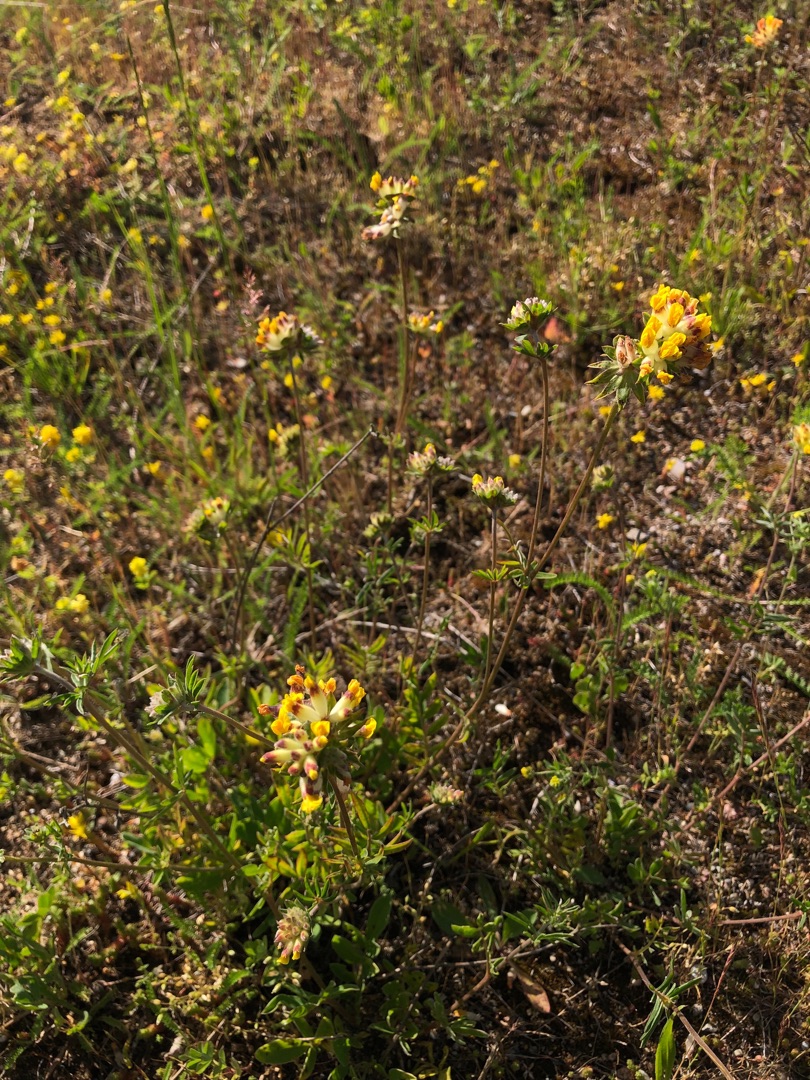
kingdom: Plantae
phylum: Tracheophyta
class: Magnoliopsida
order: Fabales
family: Fabaceae
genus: Anthyllis
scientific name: Anthyllis vulneraria
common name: Rundbælg
